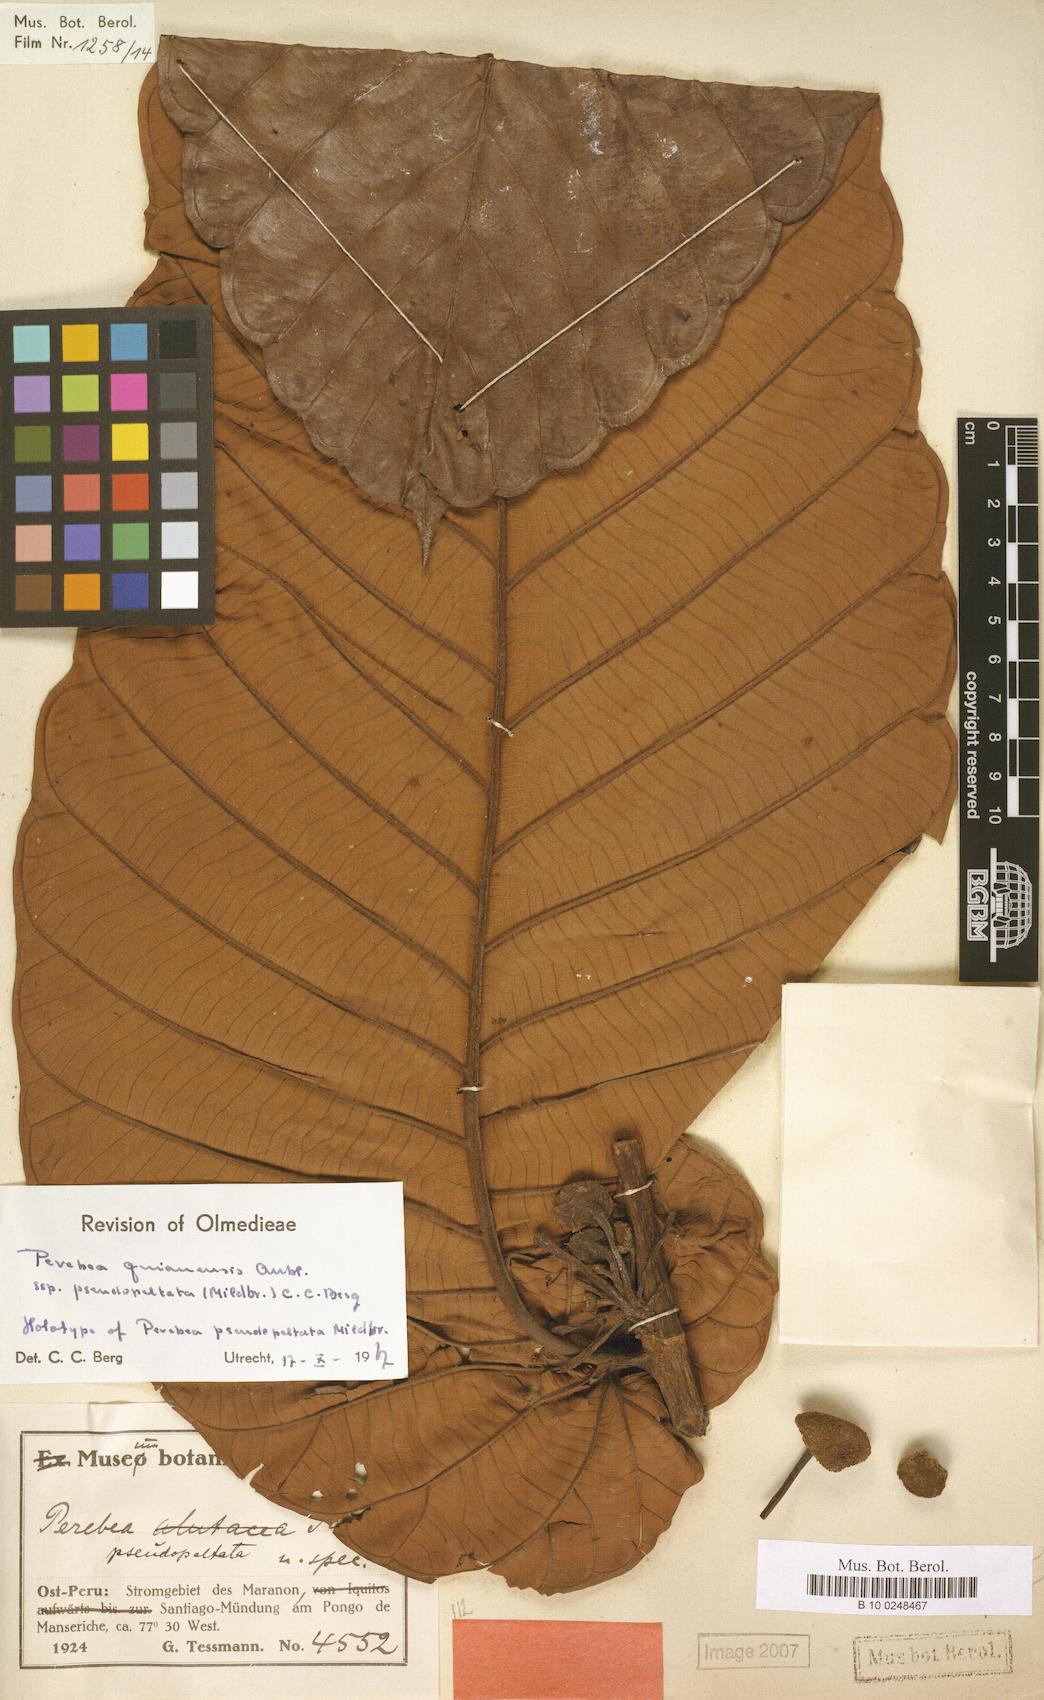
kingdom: Plantae
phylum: Tracheophyta
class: Magnoliopsida
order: Rosales
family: Moraceae
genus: Perebea
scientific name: Perebea guianensis
